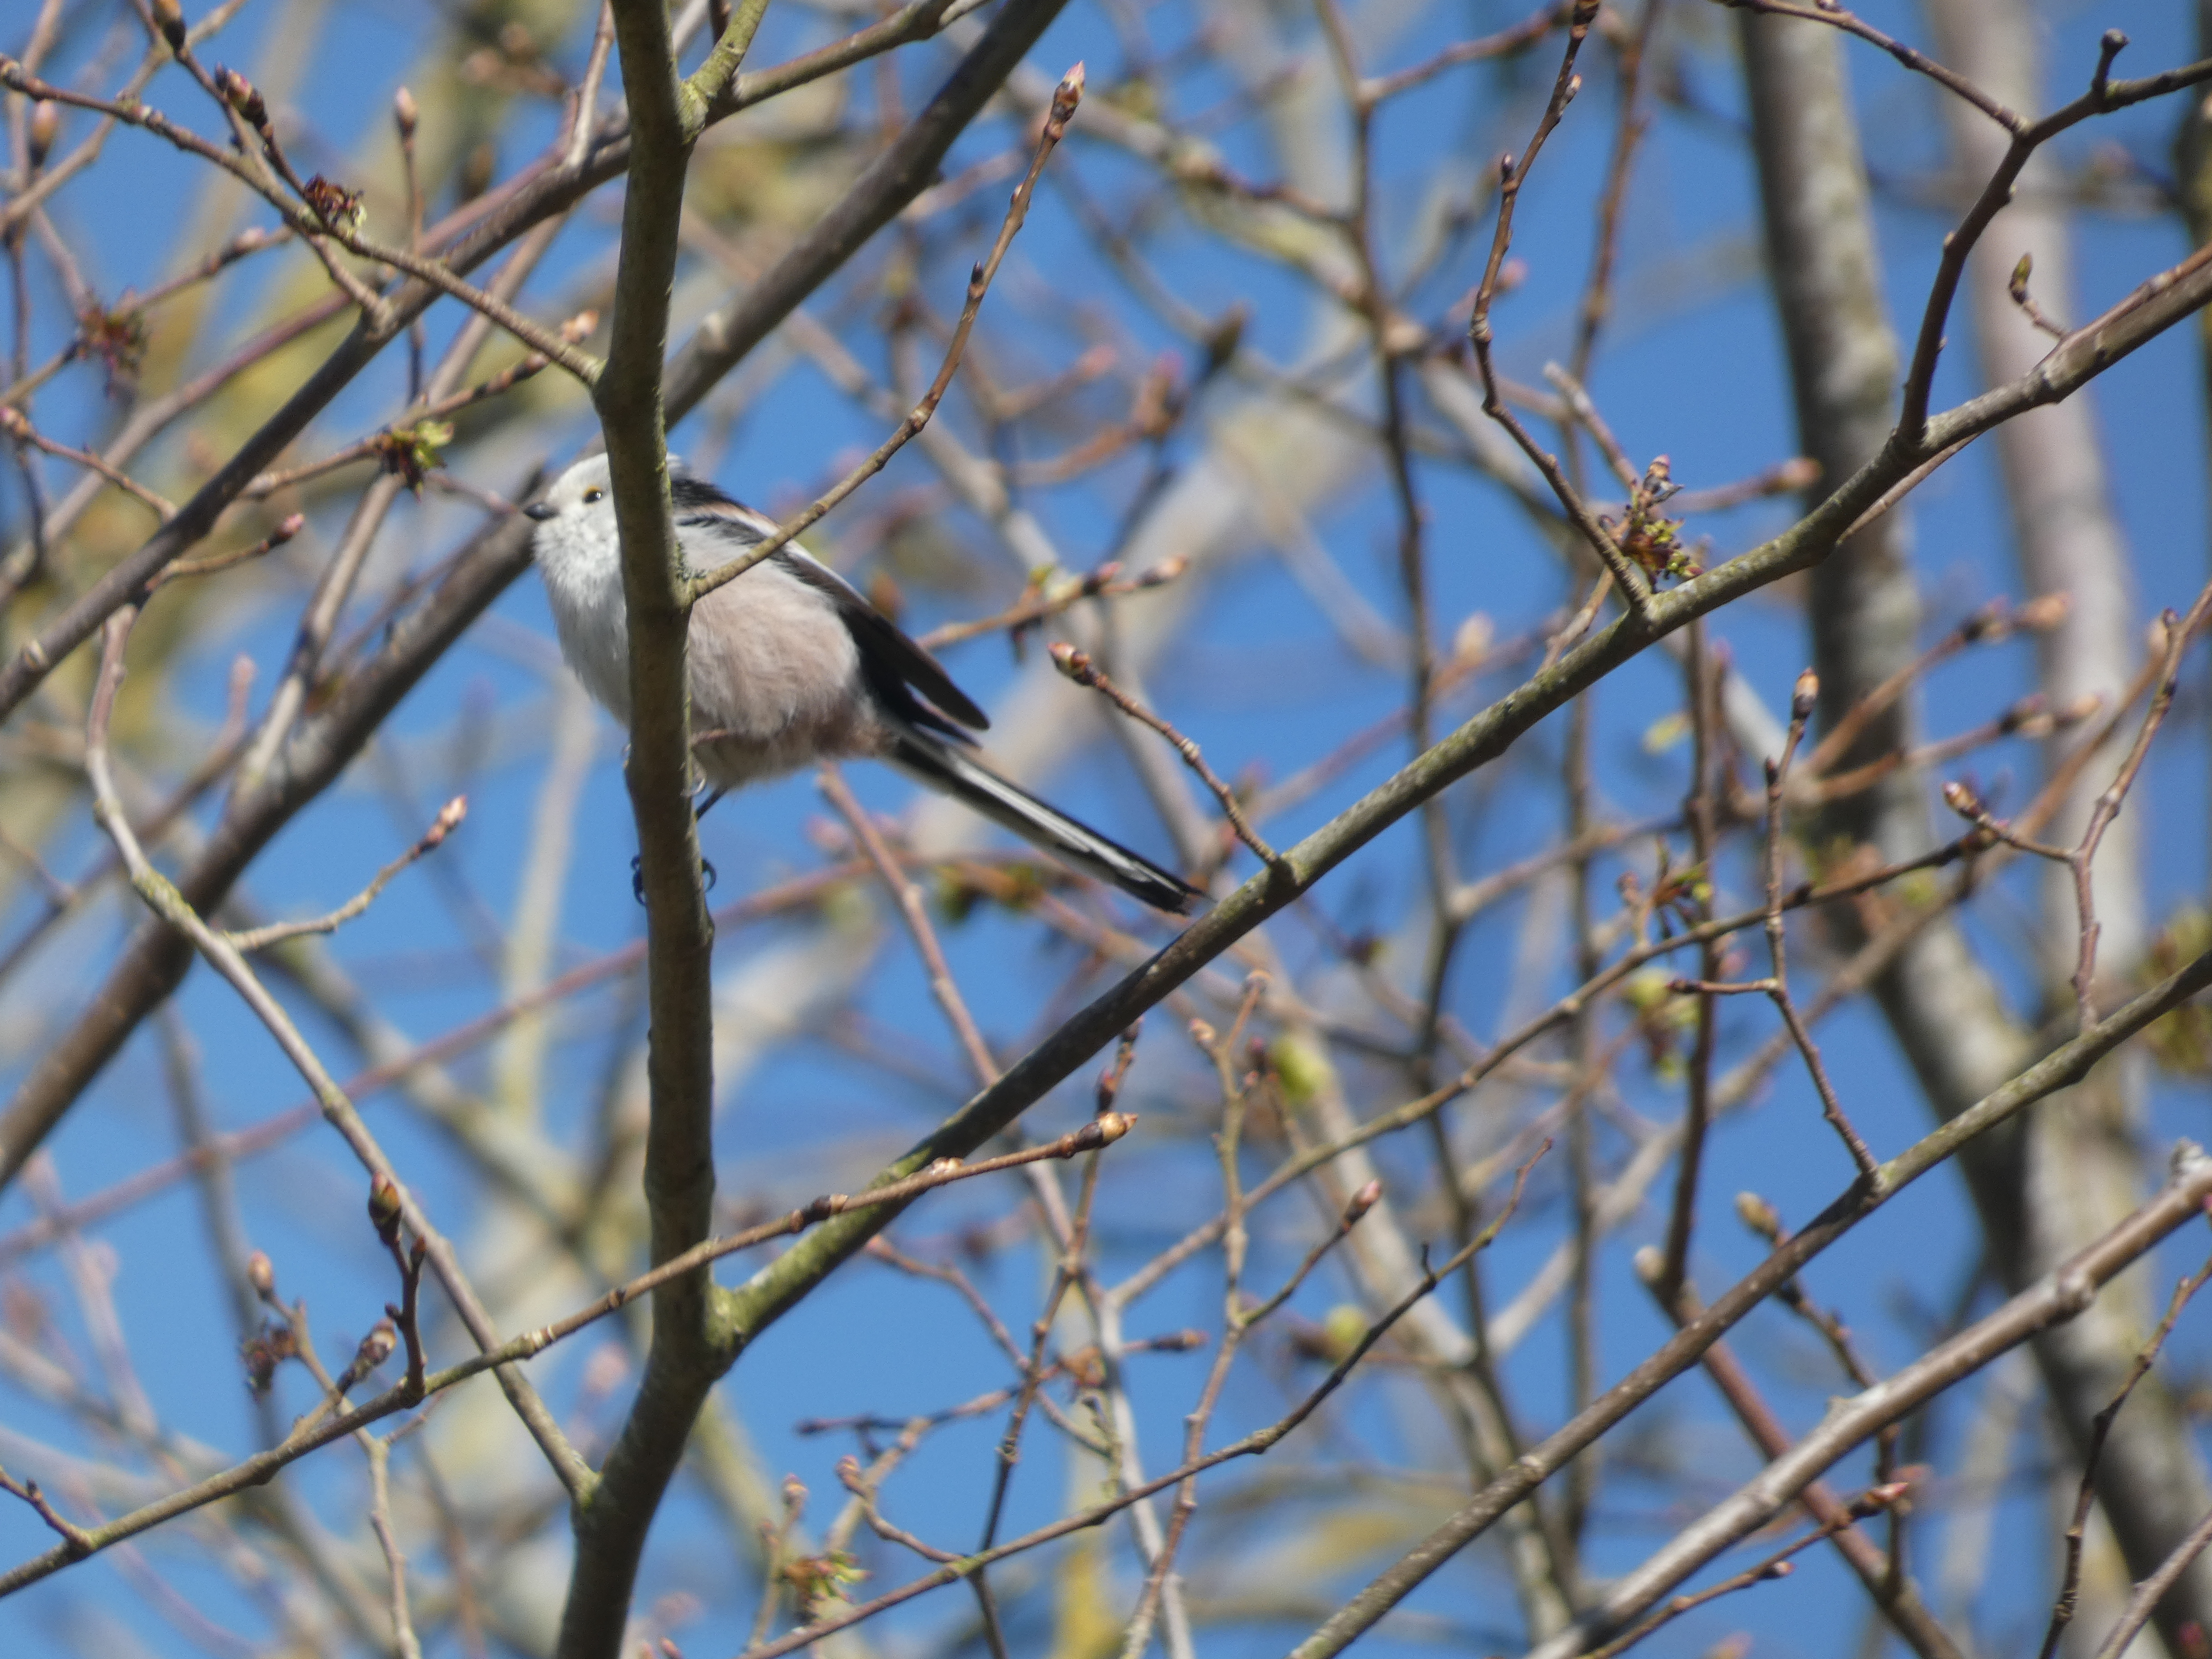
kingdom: Animalia
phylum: Chordata
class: Aves
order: Passeriformes
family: Aegithalidae
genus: Aegithalos
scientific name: Aegithalos caudatus
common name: Halemejse
